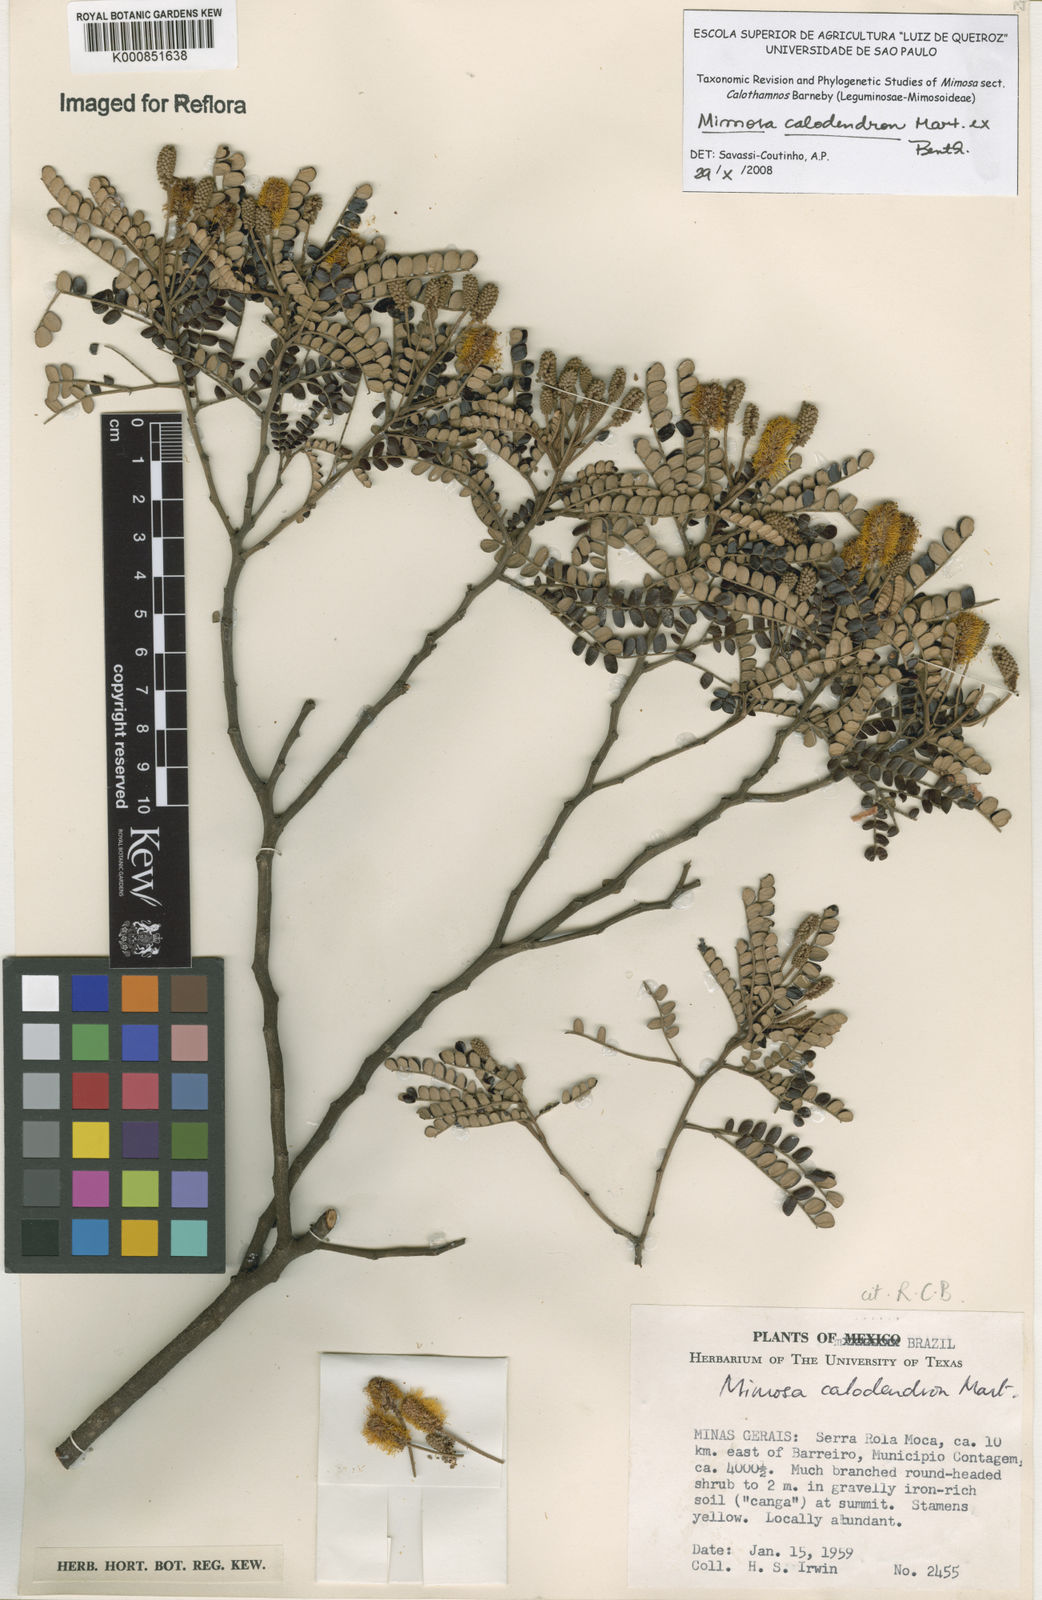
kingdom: Plantae
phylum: Tracheophyta
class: Magnoliopsida
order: Fabales
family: Fabaceae
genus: Mimosa
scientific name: Mimosa
